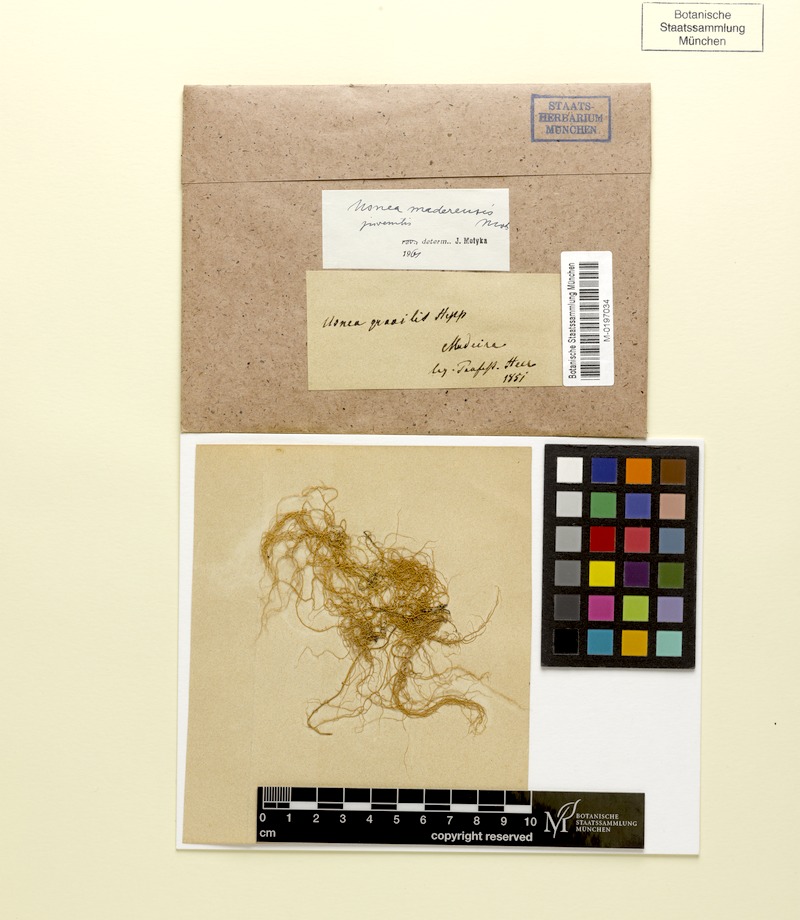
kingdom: Fungi
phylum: Ascomycota
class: Lecanoromycetes
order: Lecanorales
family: Parmeliaceae
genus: Usnea
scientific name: Usnea silesiaca
